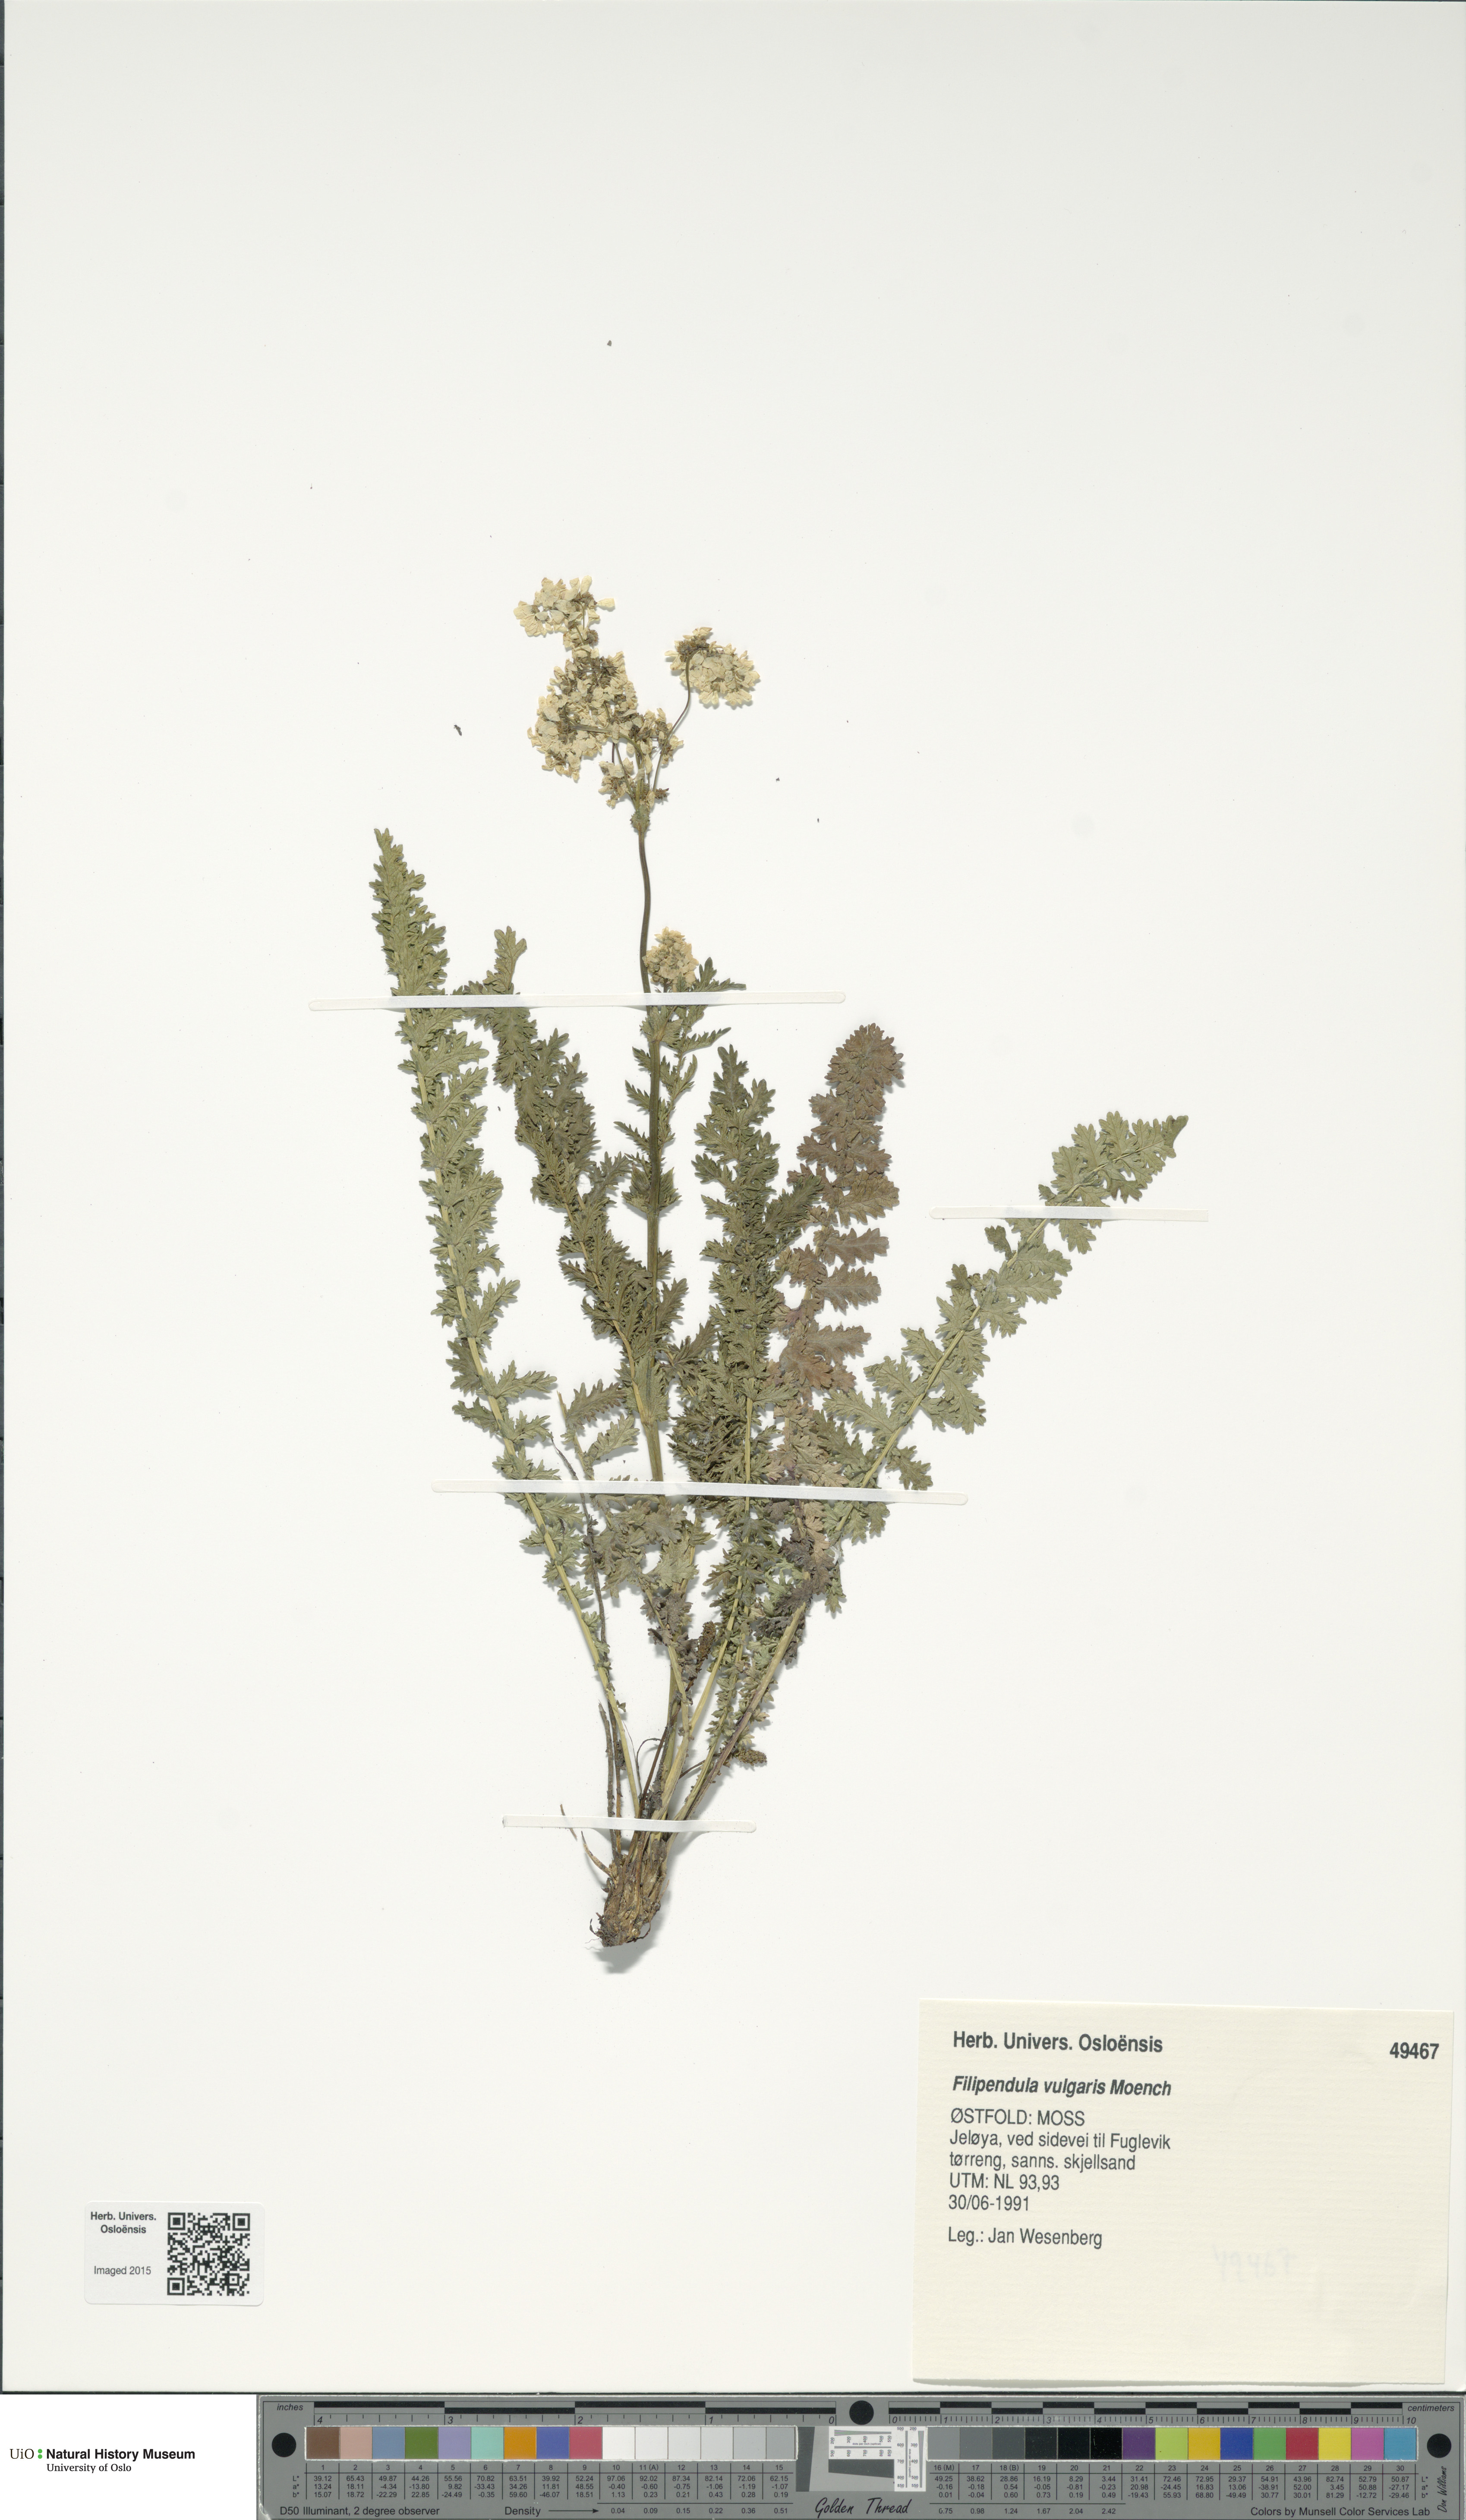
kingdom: Plantae
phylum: Tracheophyta
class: Magnoliopsida
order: Rosales
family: Rosaceae
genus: Filipendula
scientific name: Filipendula vulgaris
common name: Dropwort
